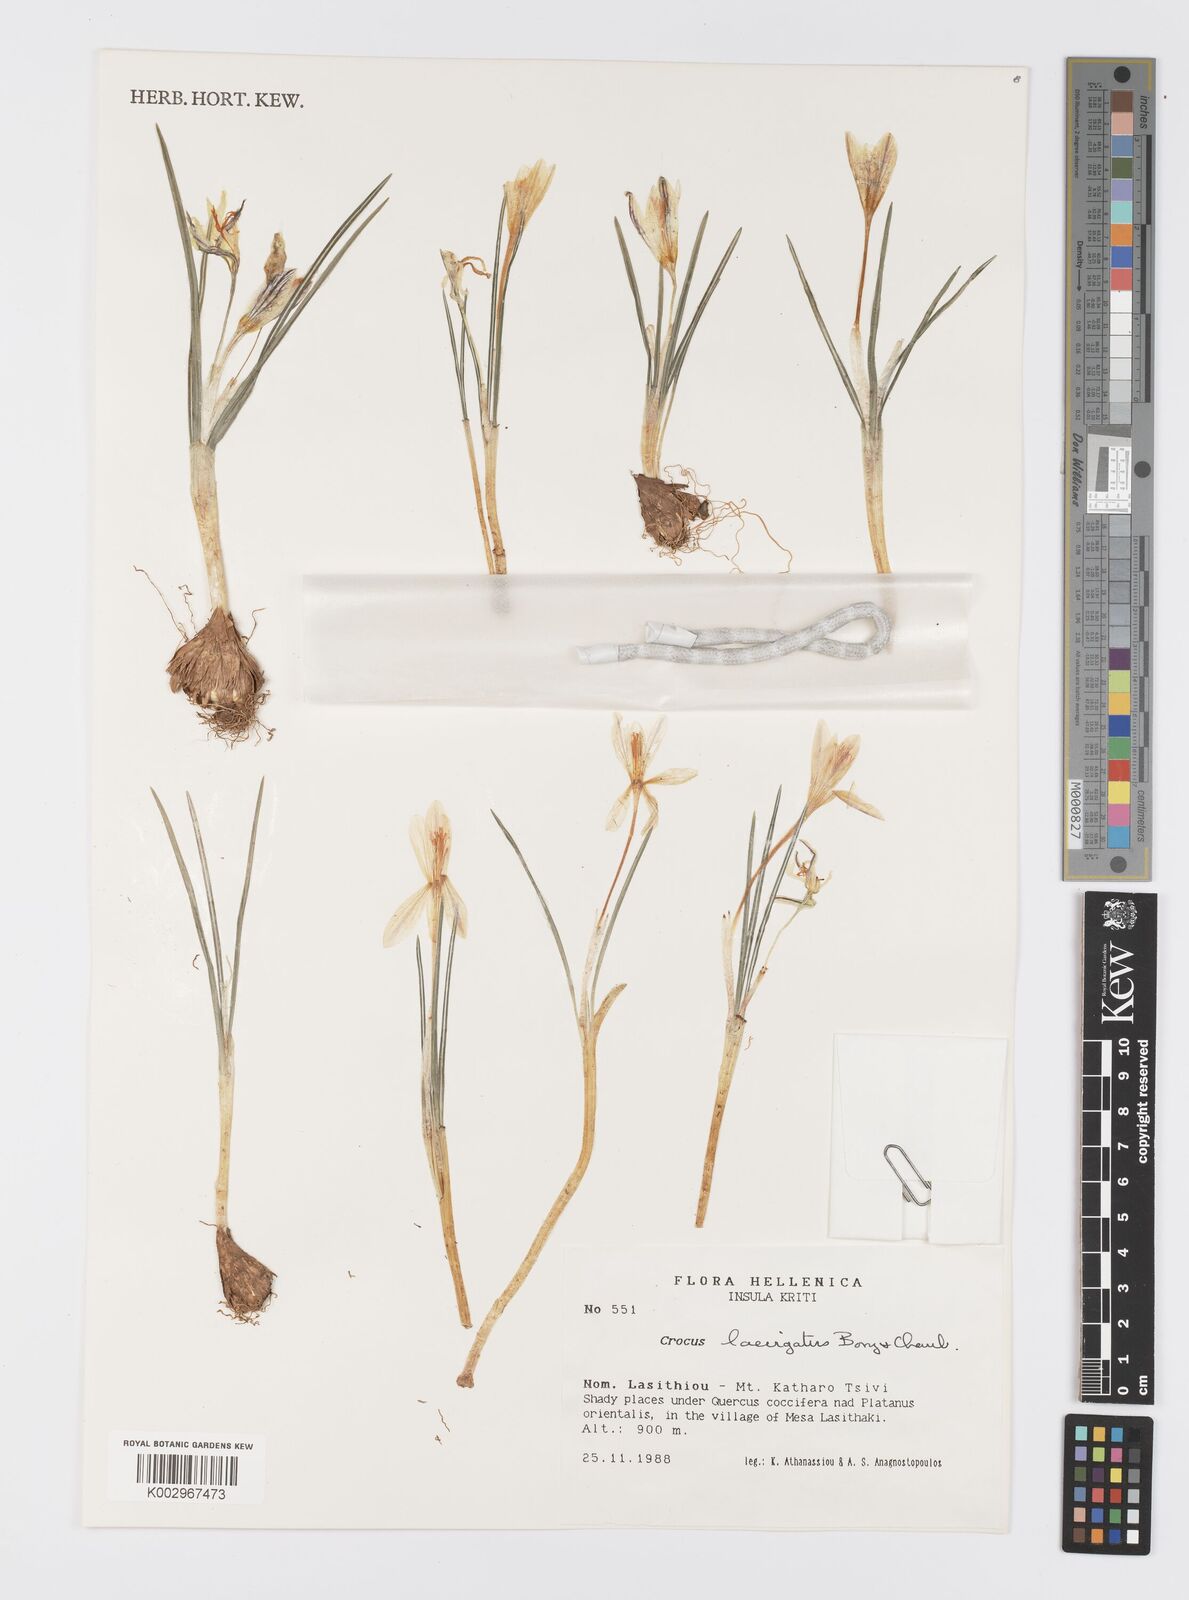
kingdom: Plantae
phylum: Tracheophyta
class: Liliopsida
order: Asparagales
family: Iridaceae
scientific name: Iridaceae
